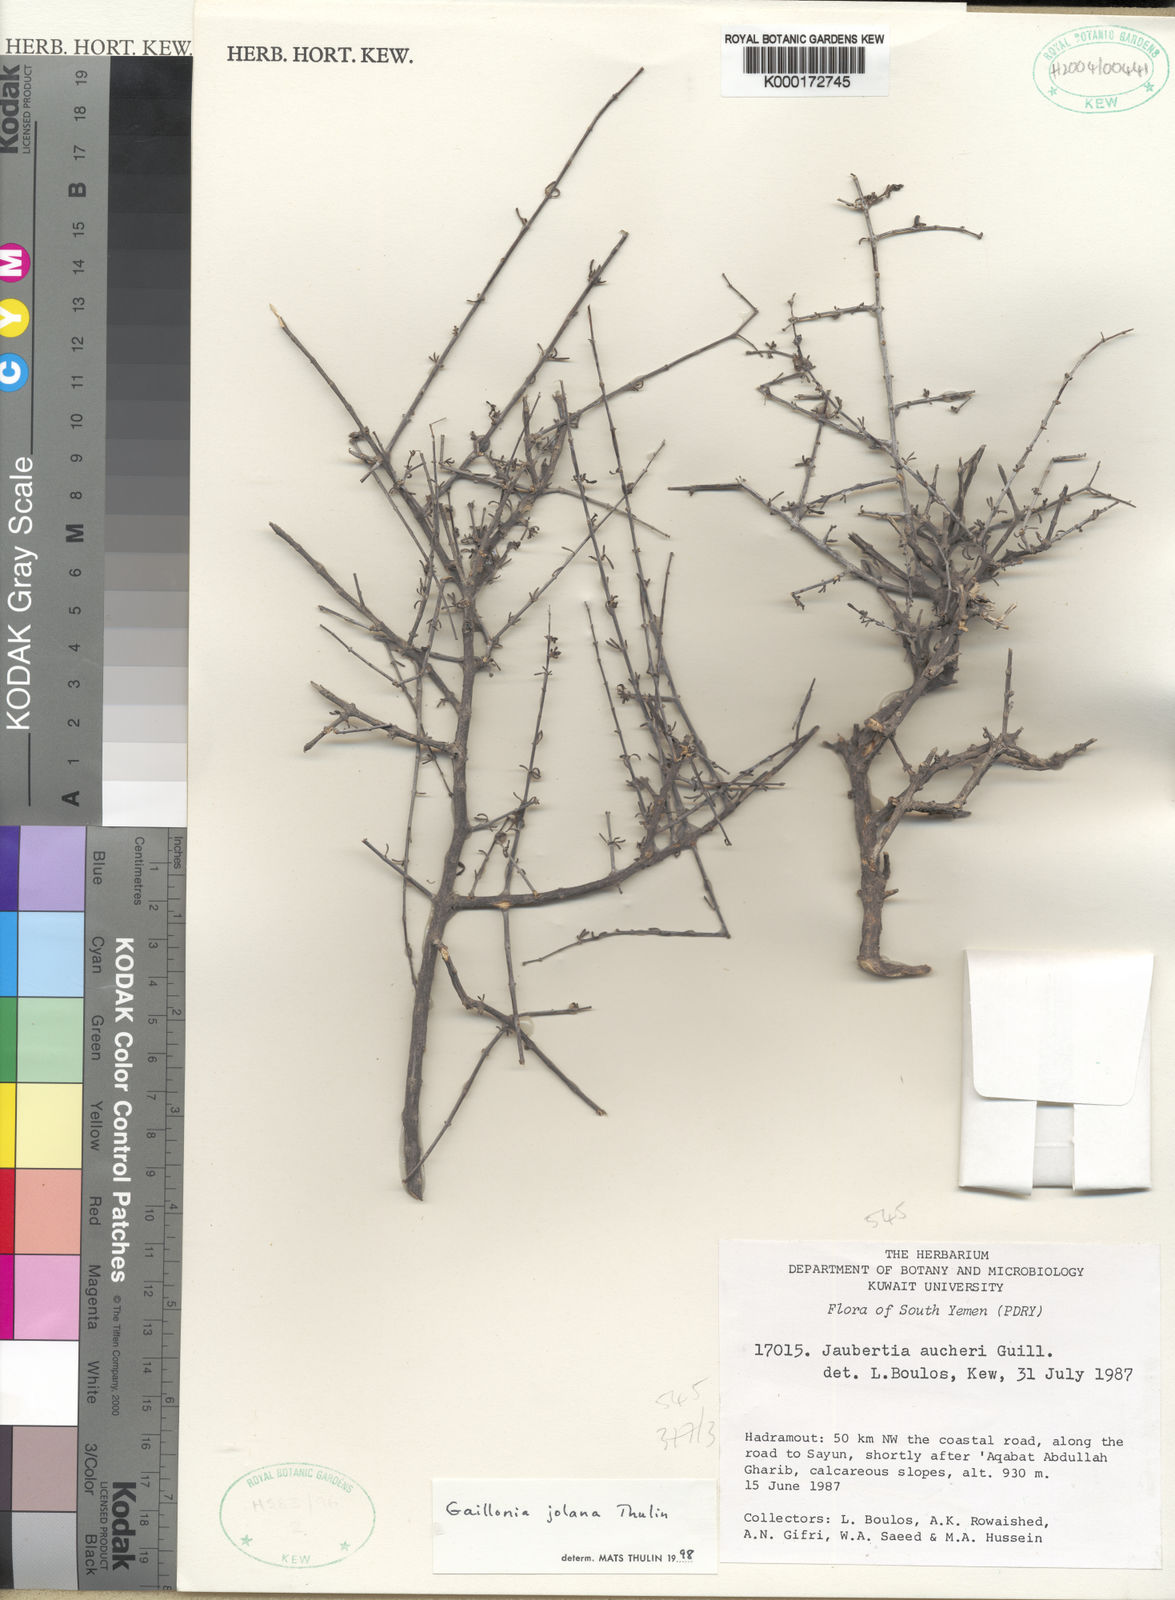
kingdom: Plantae
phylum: Tracheophyta
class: Magnoliopsida
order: Gentianales
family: Rubiaceae
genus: Plocama
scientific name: Plocama jolana
